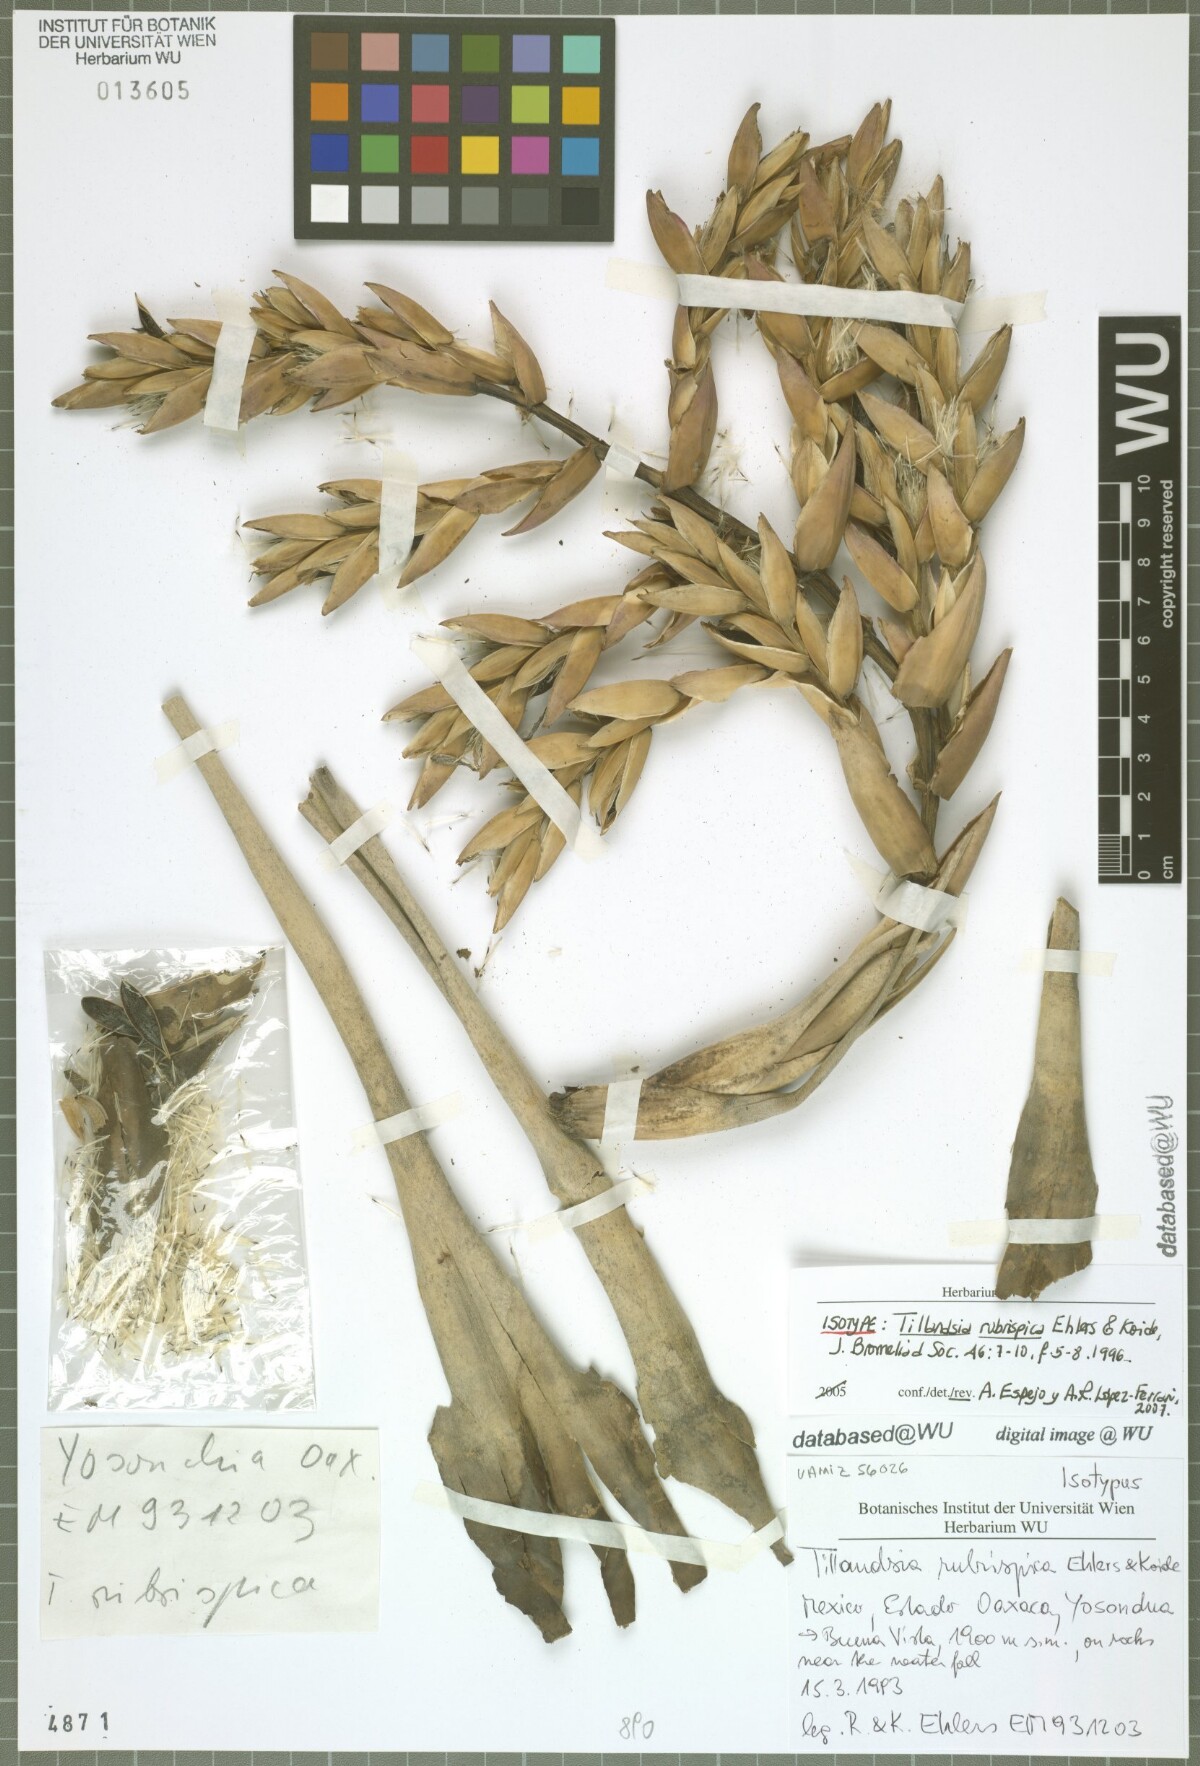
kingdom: Plantae
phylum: Tracheophyta
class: Liliopsida
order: Poales
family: Bromeliaceae
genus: Tillandsia
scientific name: Tillandsia rubrispica
